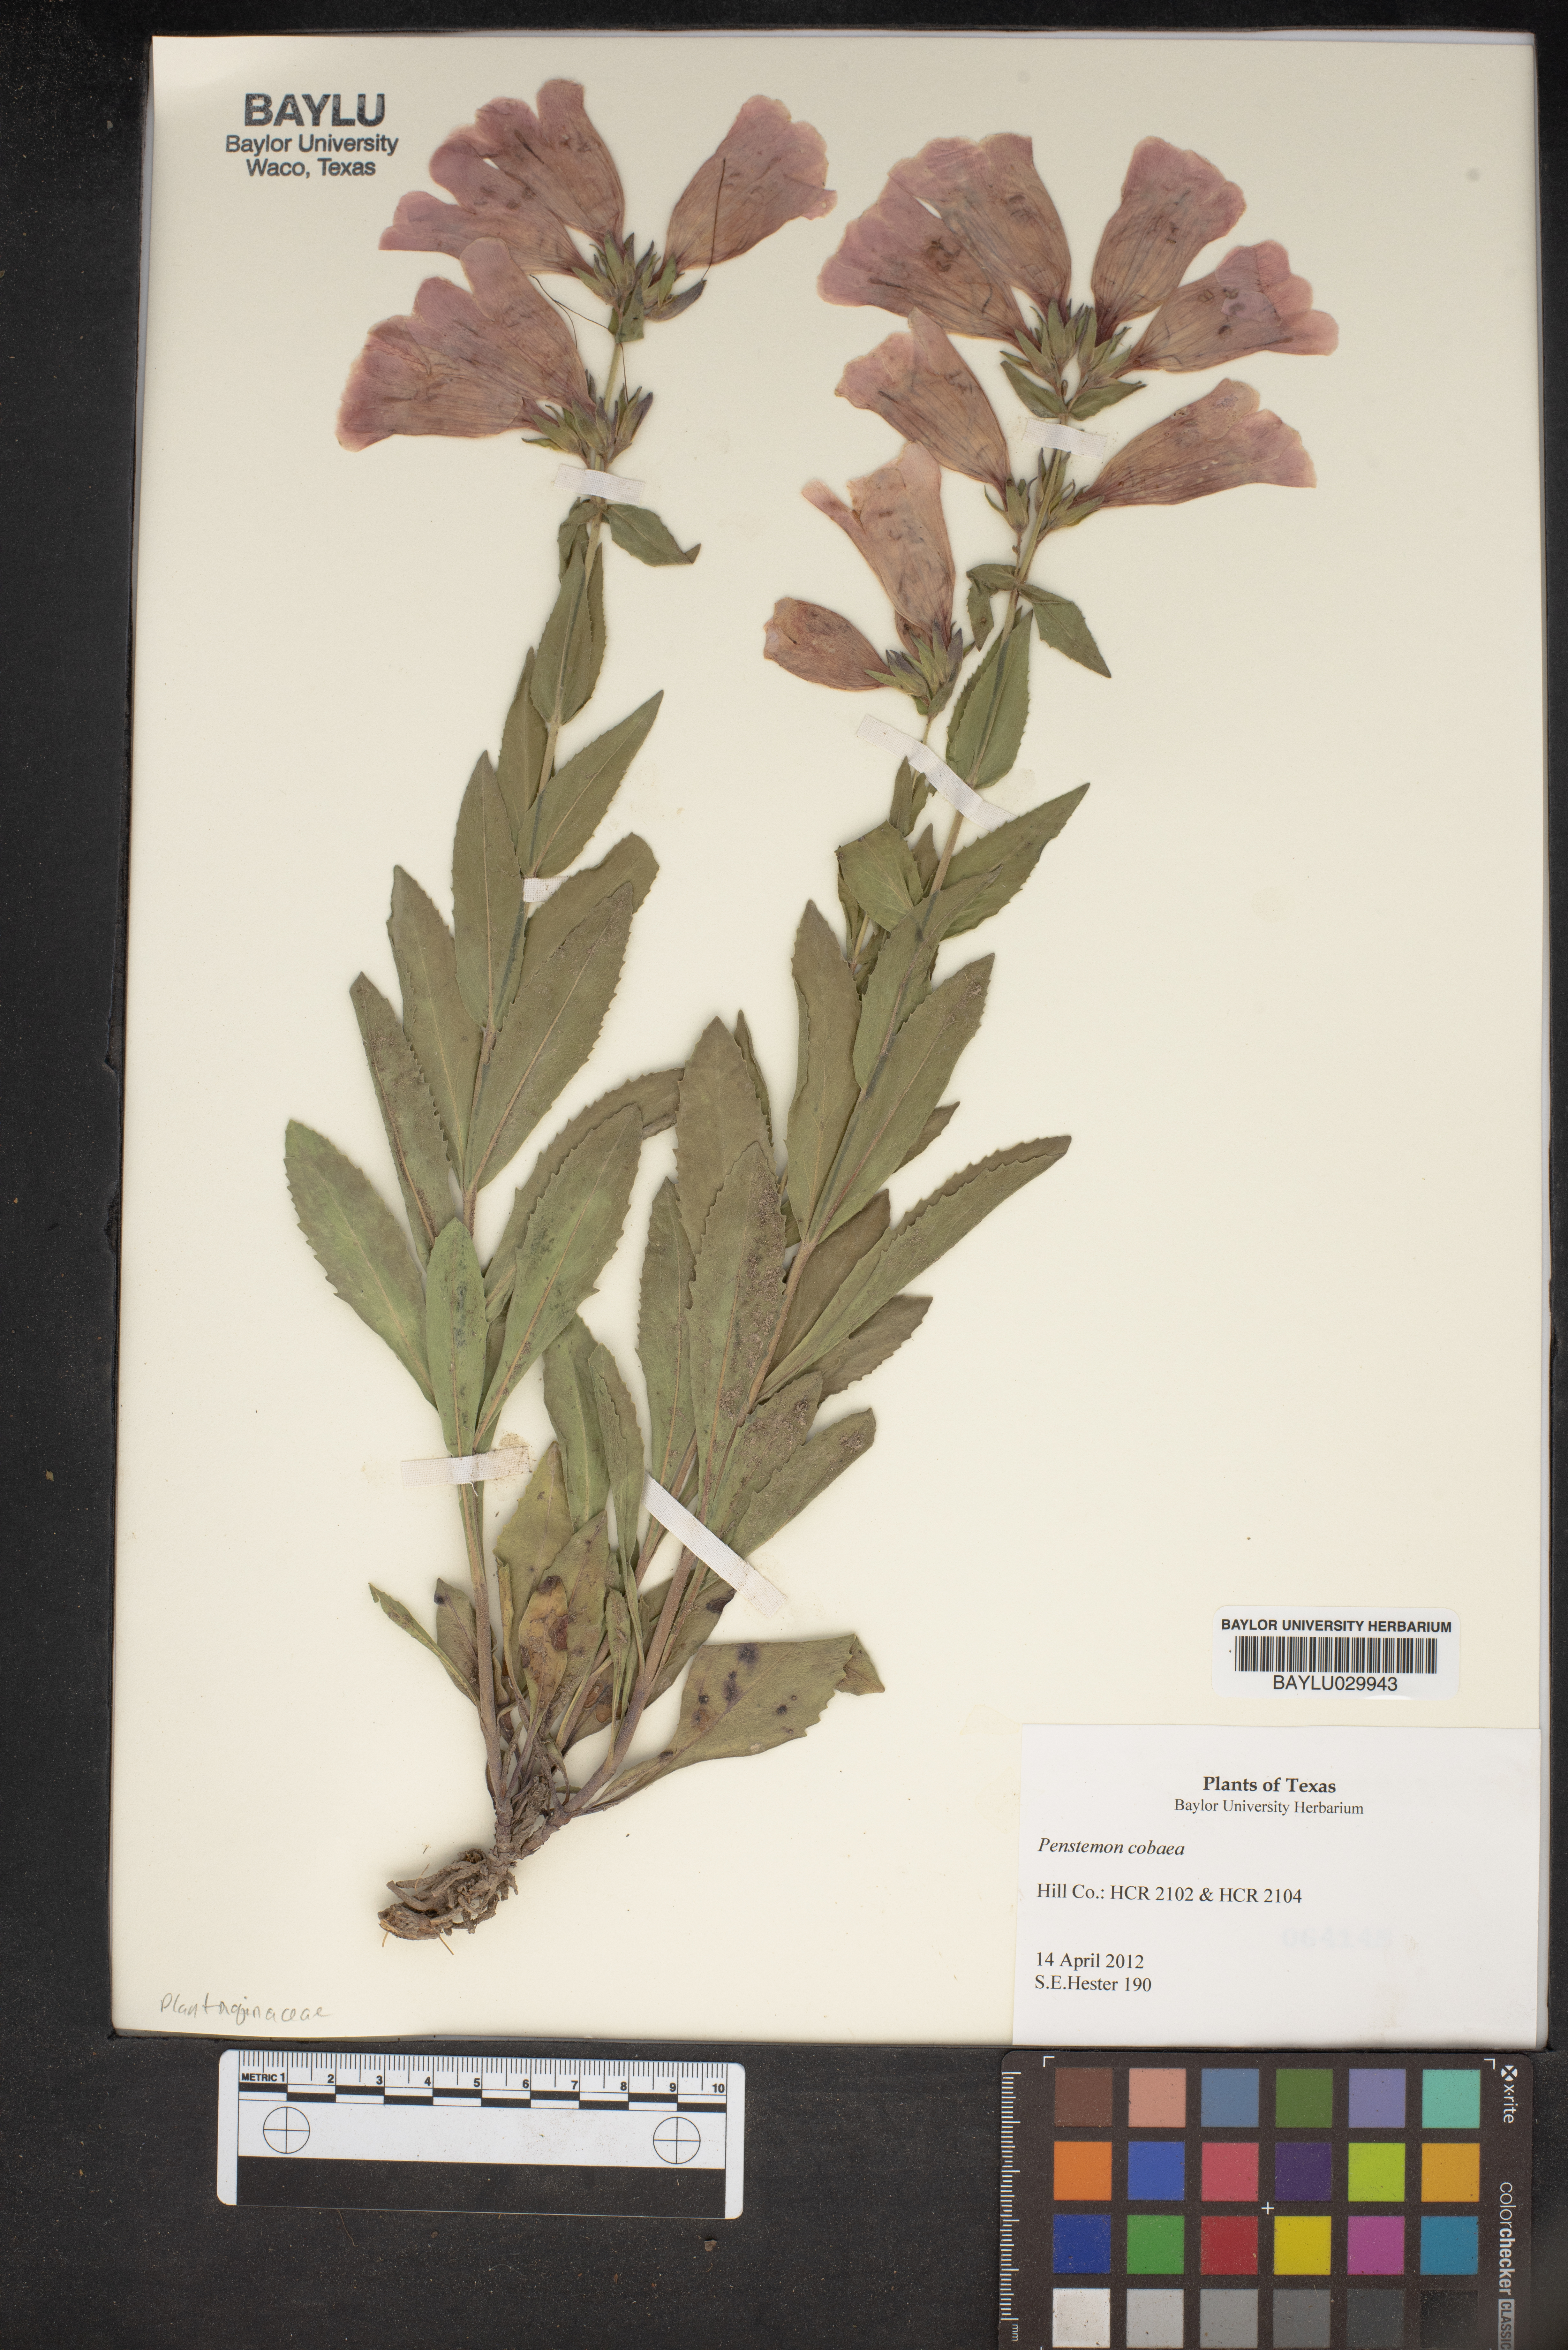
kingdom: Plantae
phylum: Tracheophyta
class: Magnoliopsida
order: Lamiales
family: Plantaginaceae
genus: Penstemon
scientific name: Penstemon cobaea
